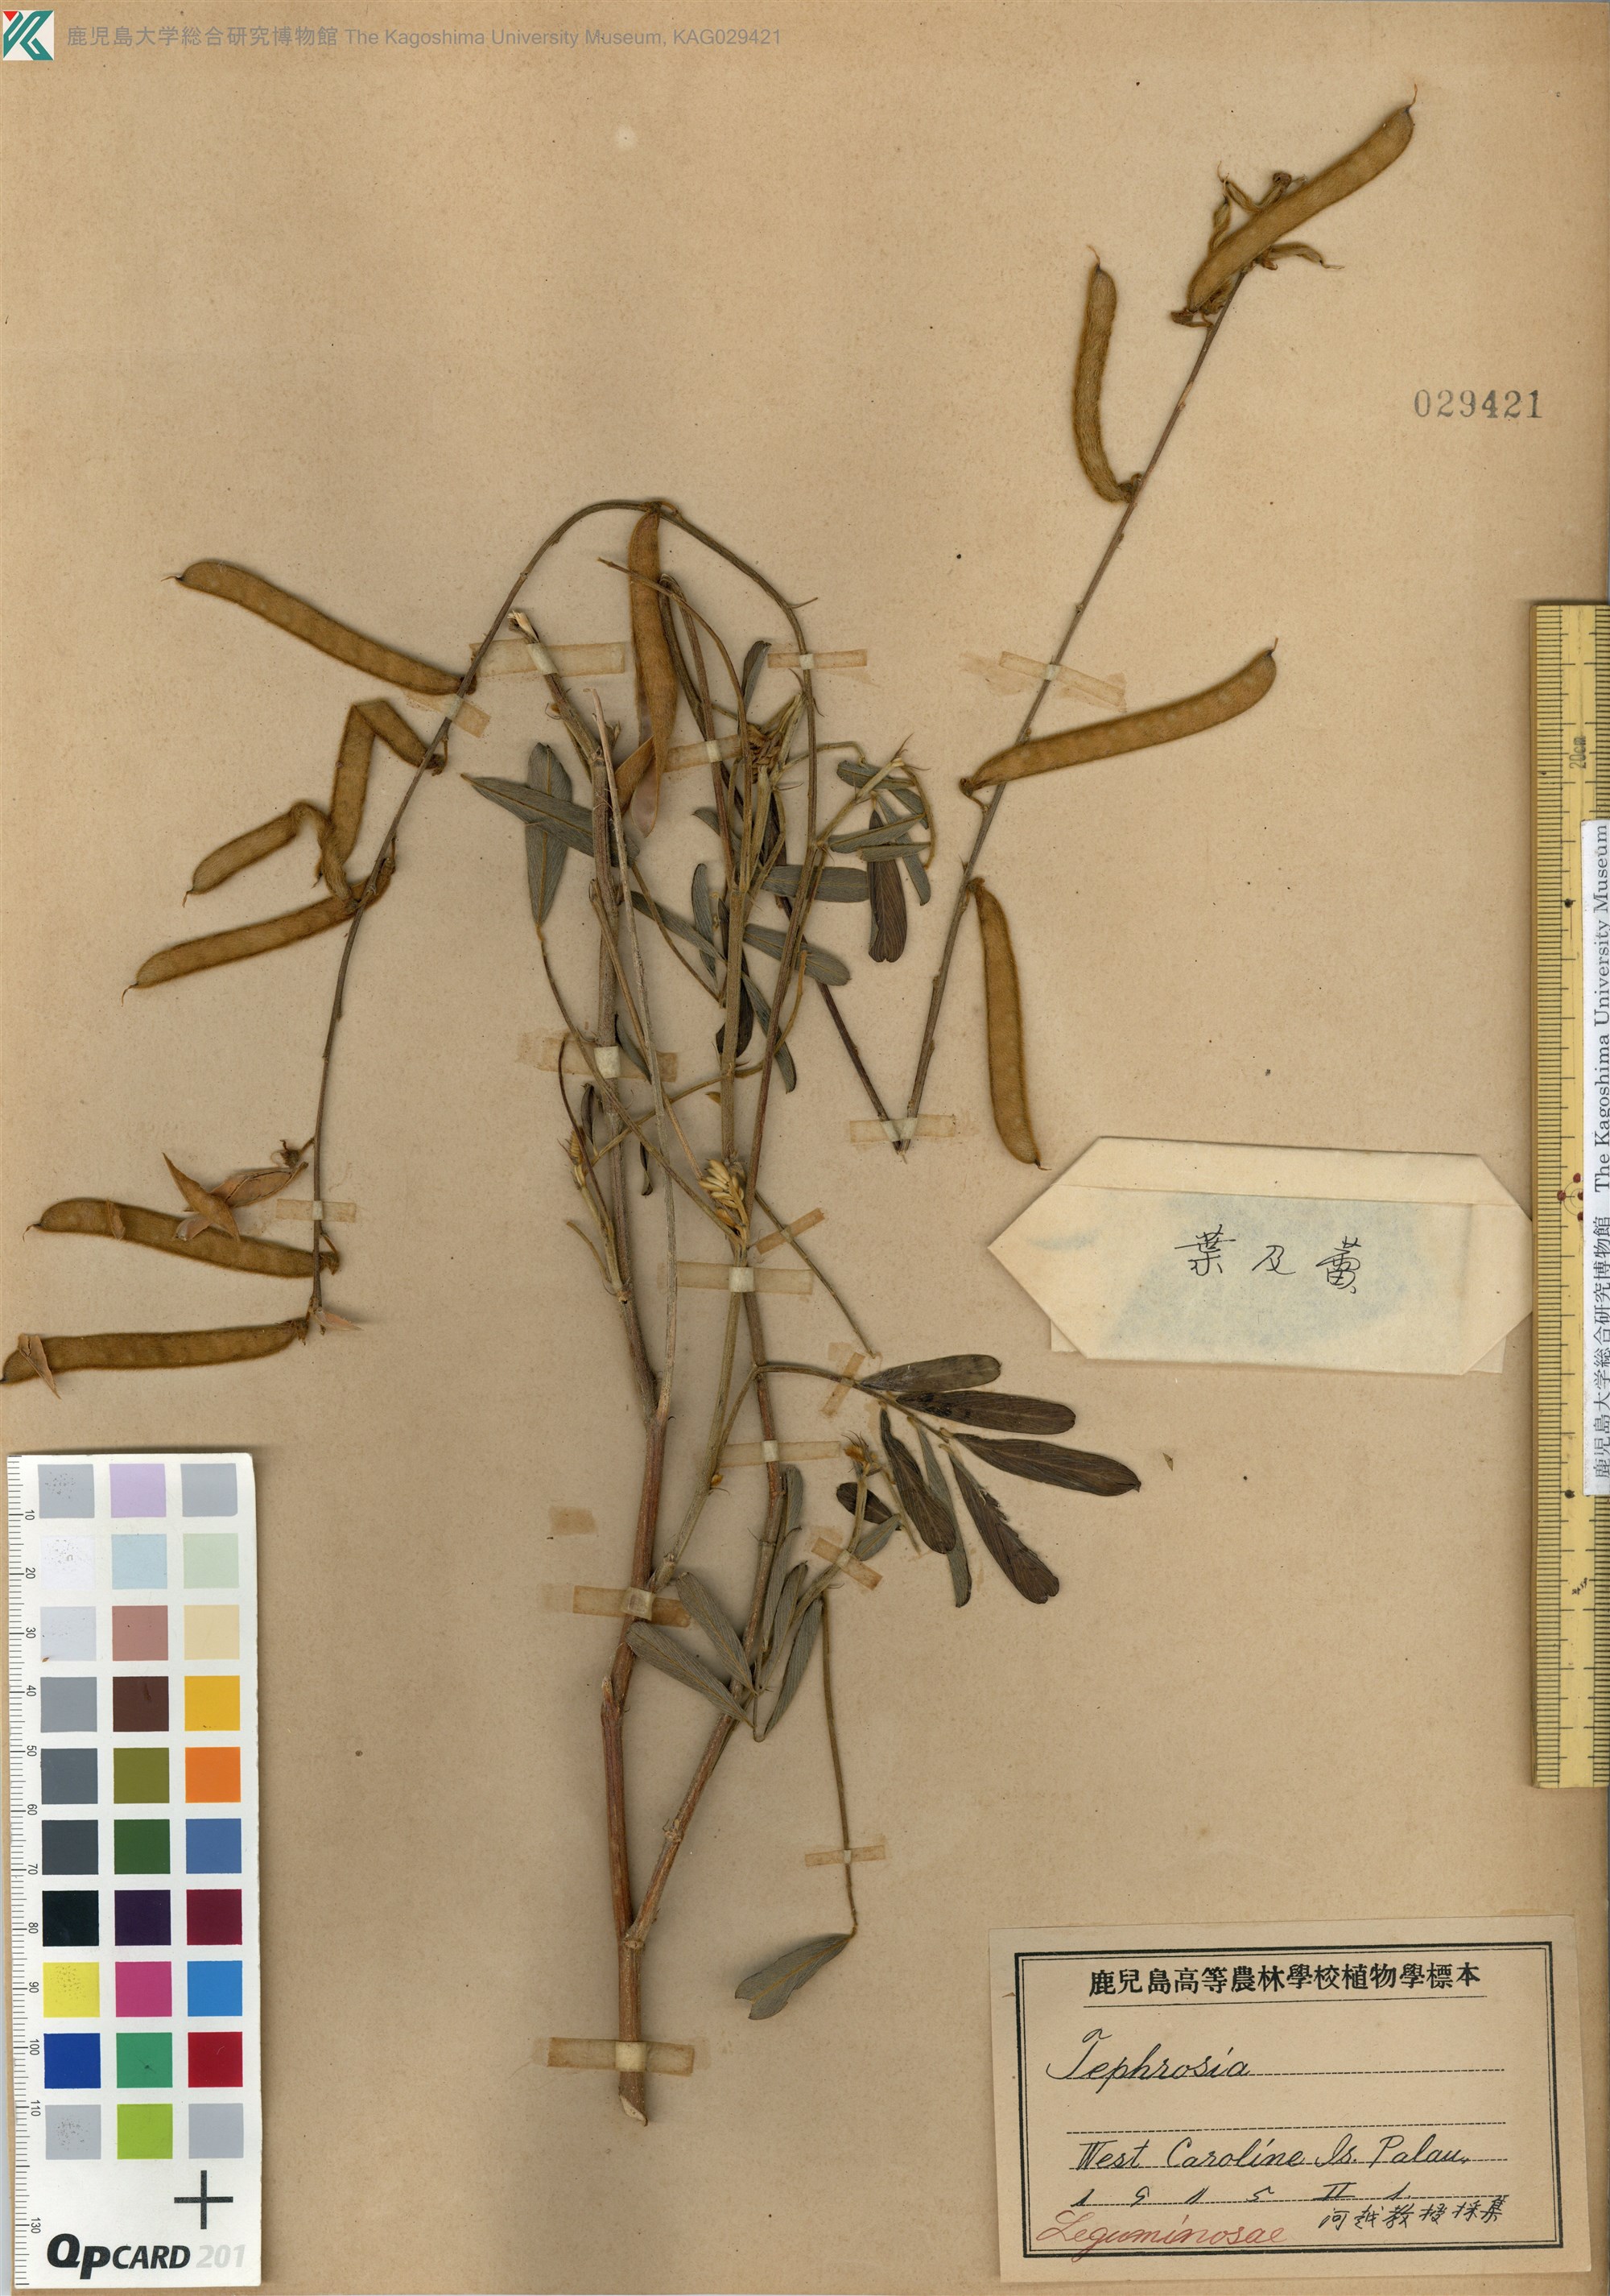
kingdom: Plantae
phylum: Tracheophyta
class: Magnoliopsida
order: Fabales
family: Fabaceae
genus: Tephrosia
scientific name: Tephrosia
